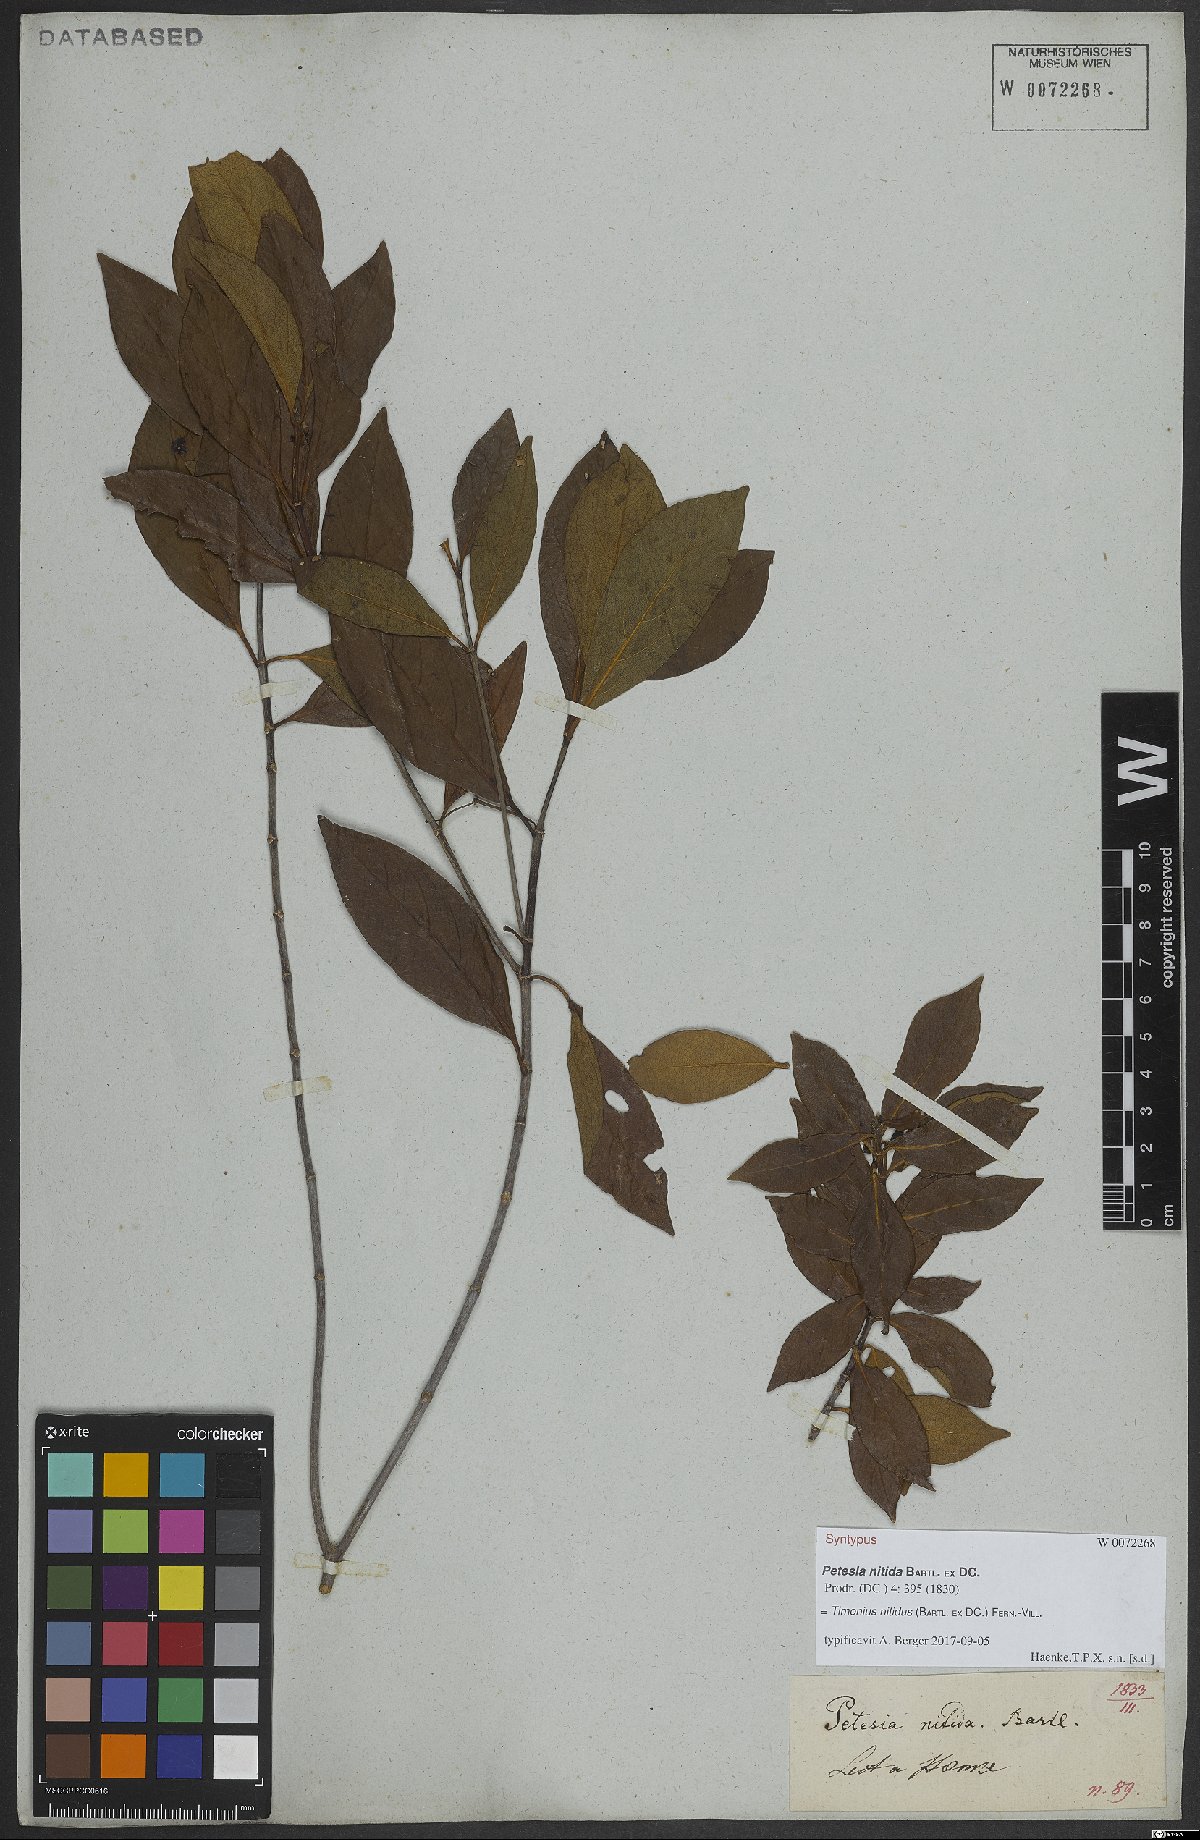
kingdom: Plantae
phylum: Tracheophyta
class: Magnoliopsida
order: Gentianales
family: Rubiaceae
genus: Timonius
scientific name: Timonius nitidus
